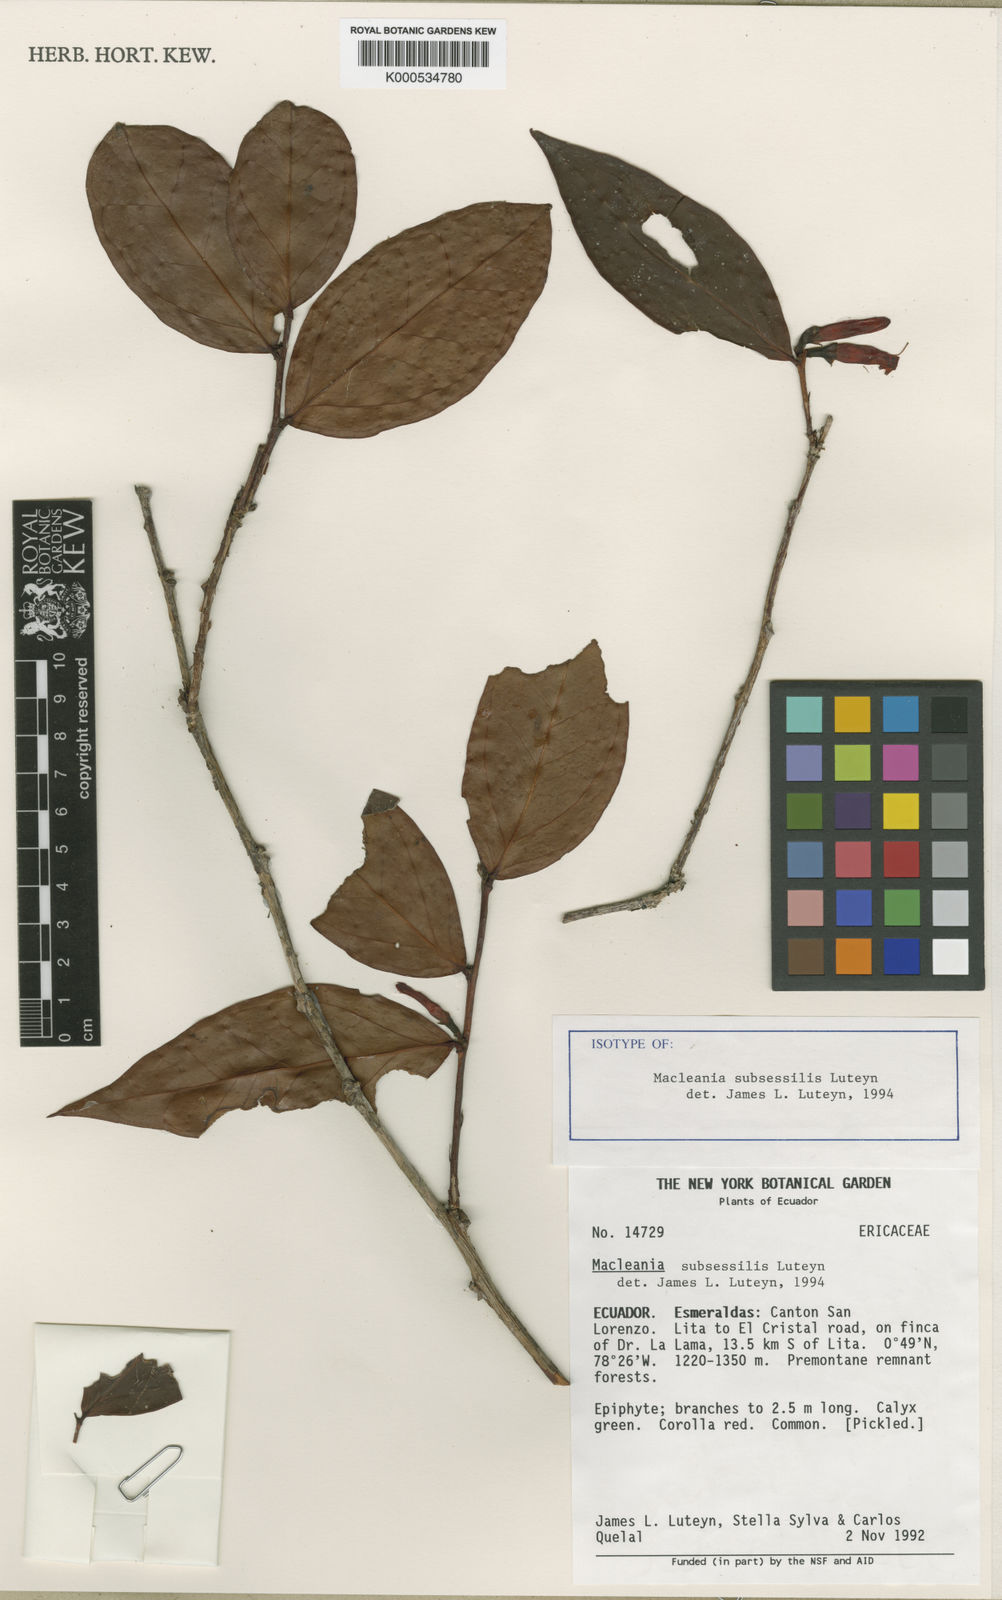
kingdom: Plantae
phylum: Tracheophyta
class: Magnoliopsida
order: Ericales
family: Ericaceae
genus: Macleania
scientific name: Macleania subsessilis
